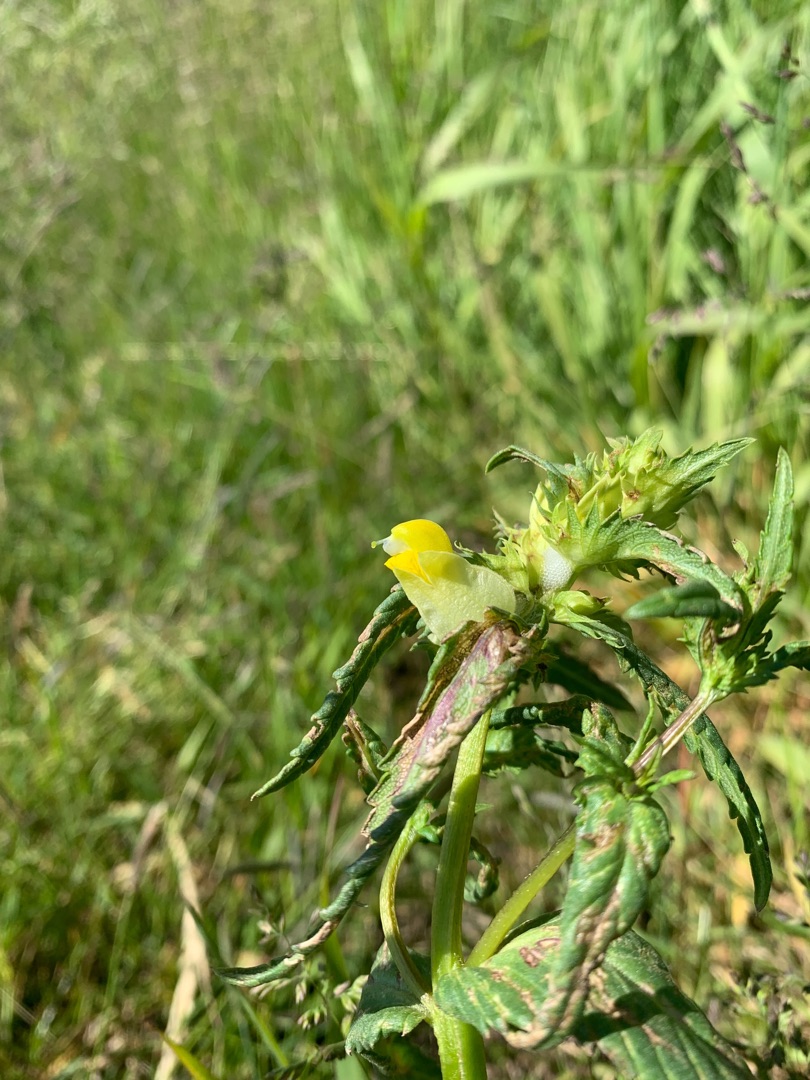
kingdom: Plantae
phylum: Tracheophyta
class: Magnoliopsida
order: Lamiales
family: Orobanchaceae
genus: Rhinanthus
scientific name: Rhinanthus
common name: Stor skjaller
